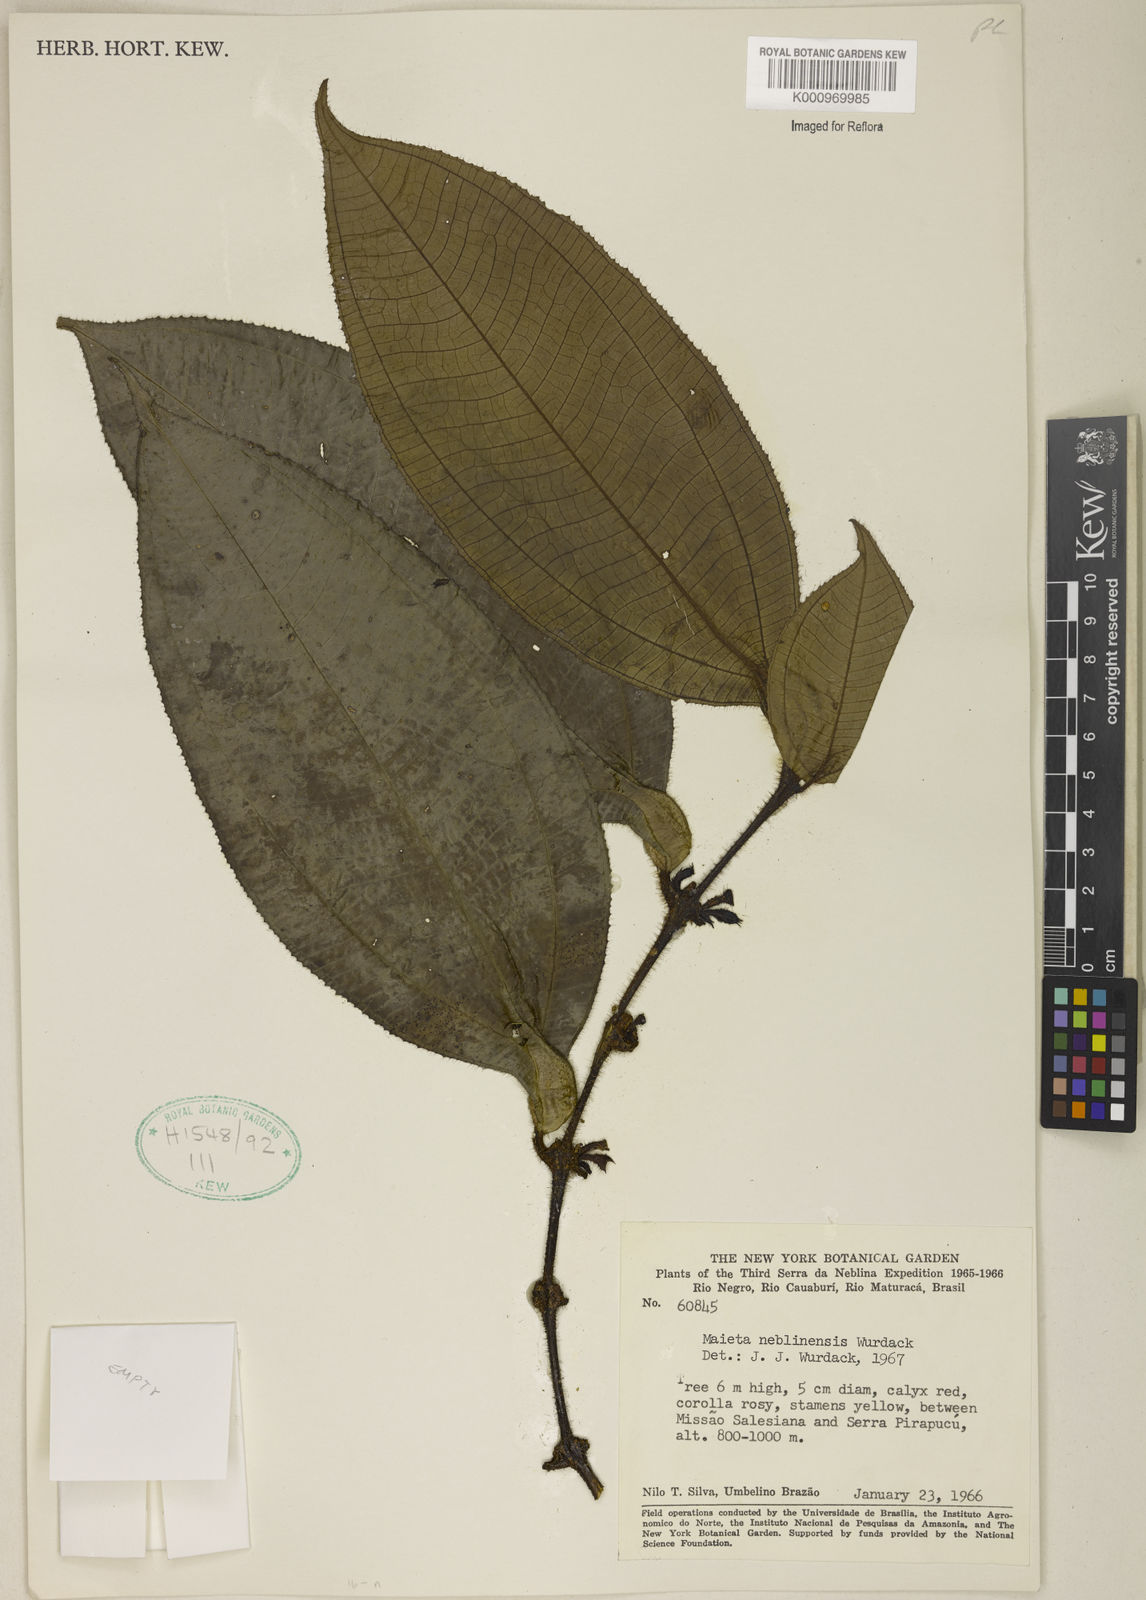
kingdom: Plantae
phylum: Tracheophyta
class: Magnoliopsida
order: Myrtales
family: Melastomataceae
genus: Miconia
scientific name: Miconia alatiflora
